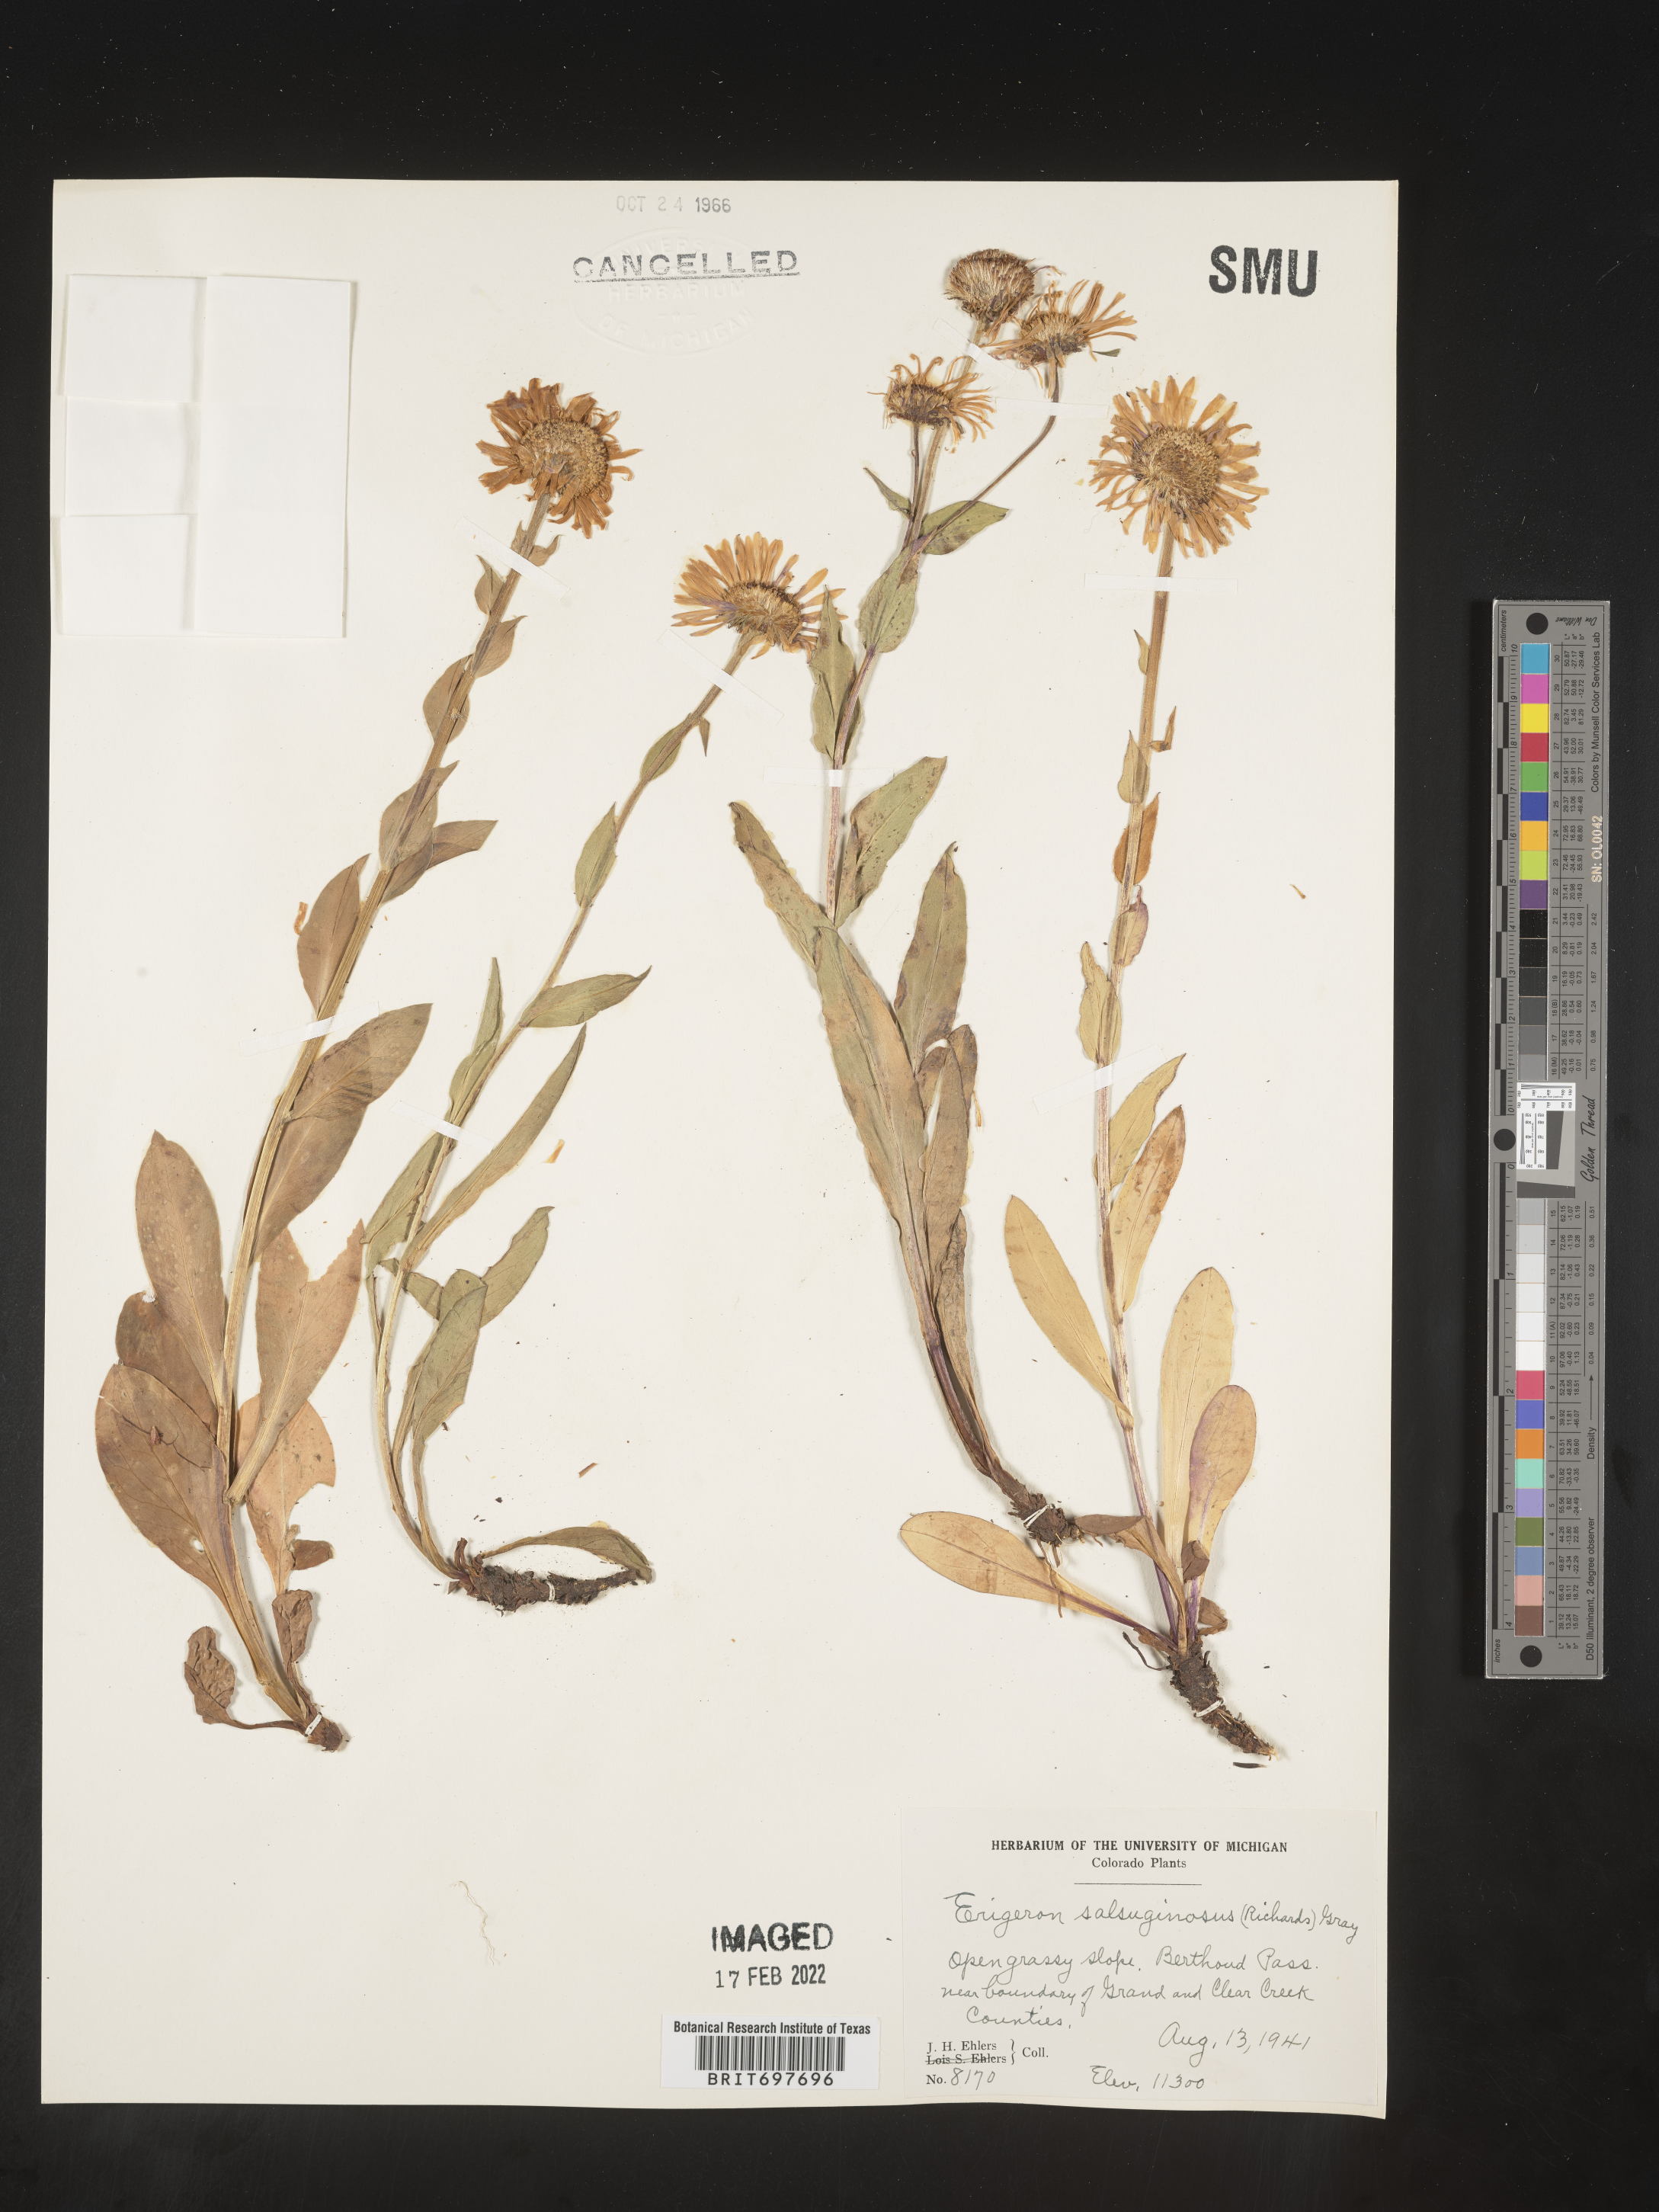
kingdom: Plantae
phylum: Tracheophyta
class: Magnoliopsida
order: Asterales
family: Asteraceae
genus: Erigeron
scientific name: Erigeron glacialis
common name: Subalpine fleabane
